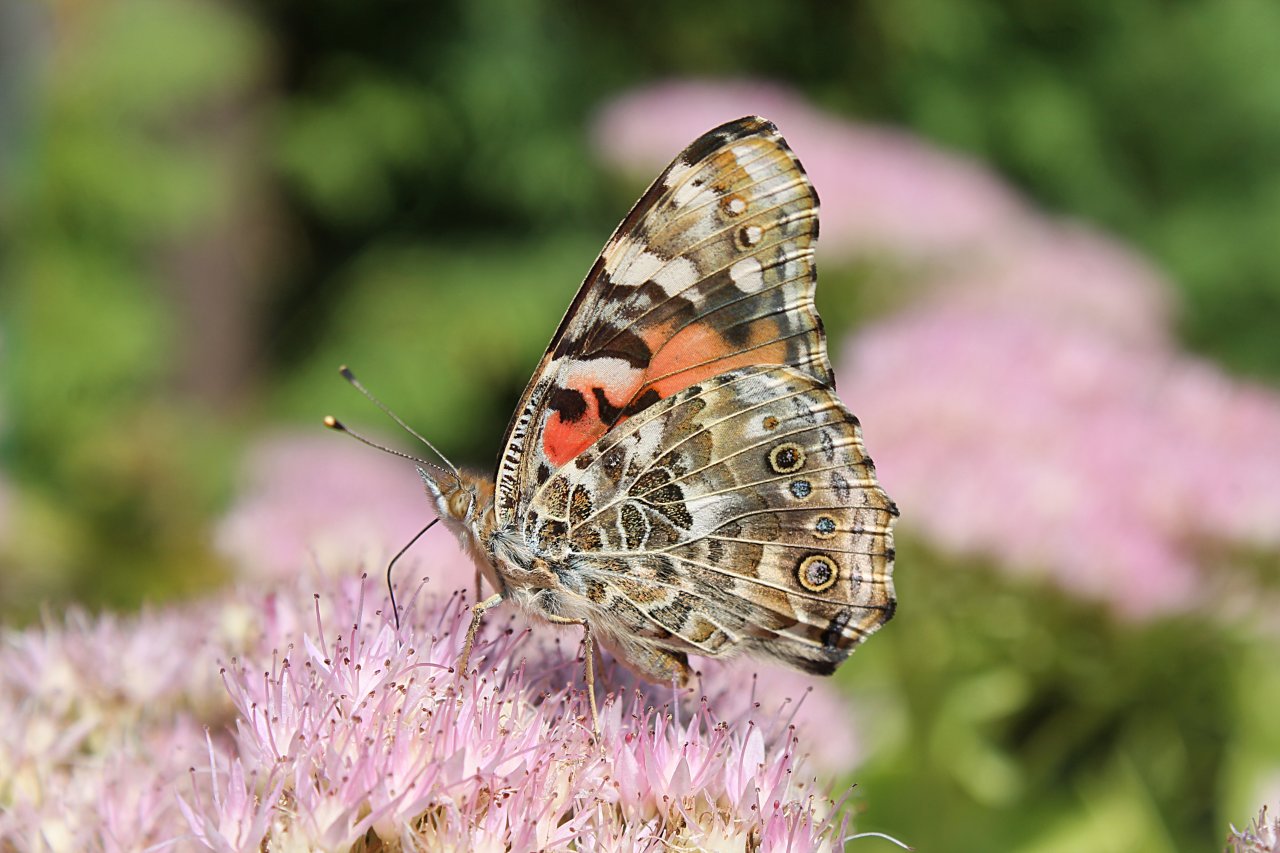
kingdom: Animalia
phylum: Arthropoda
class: Insecta
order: Lepidoptera
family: Nymphalidae
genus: Vanessa
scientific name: Vanessa cardui
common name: Painted Lady
